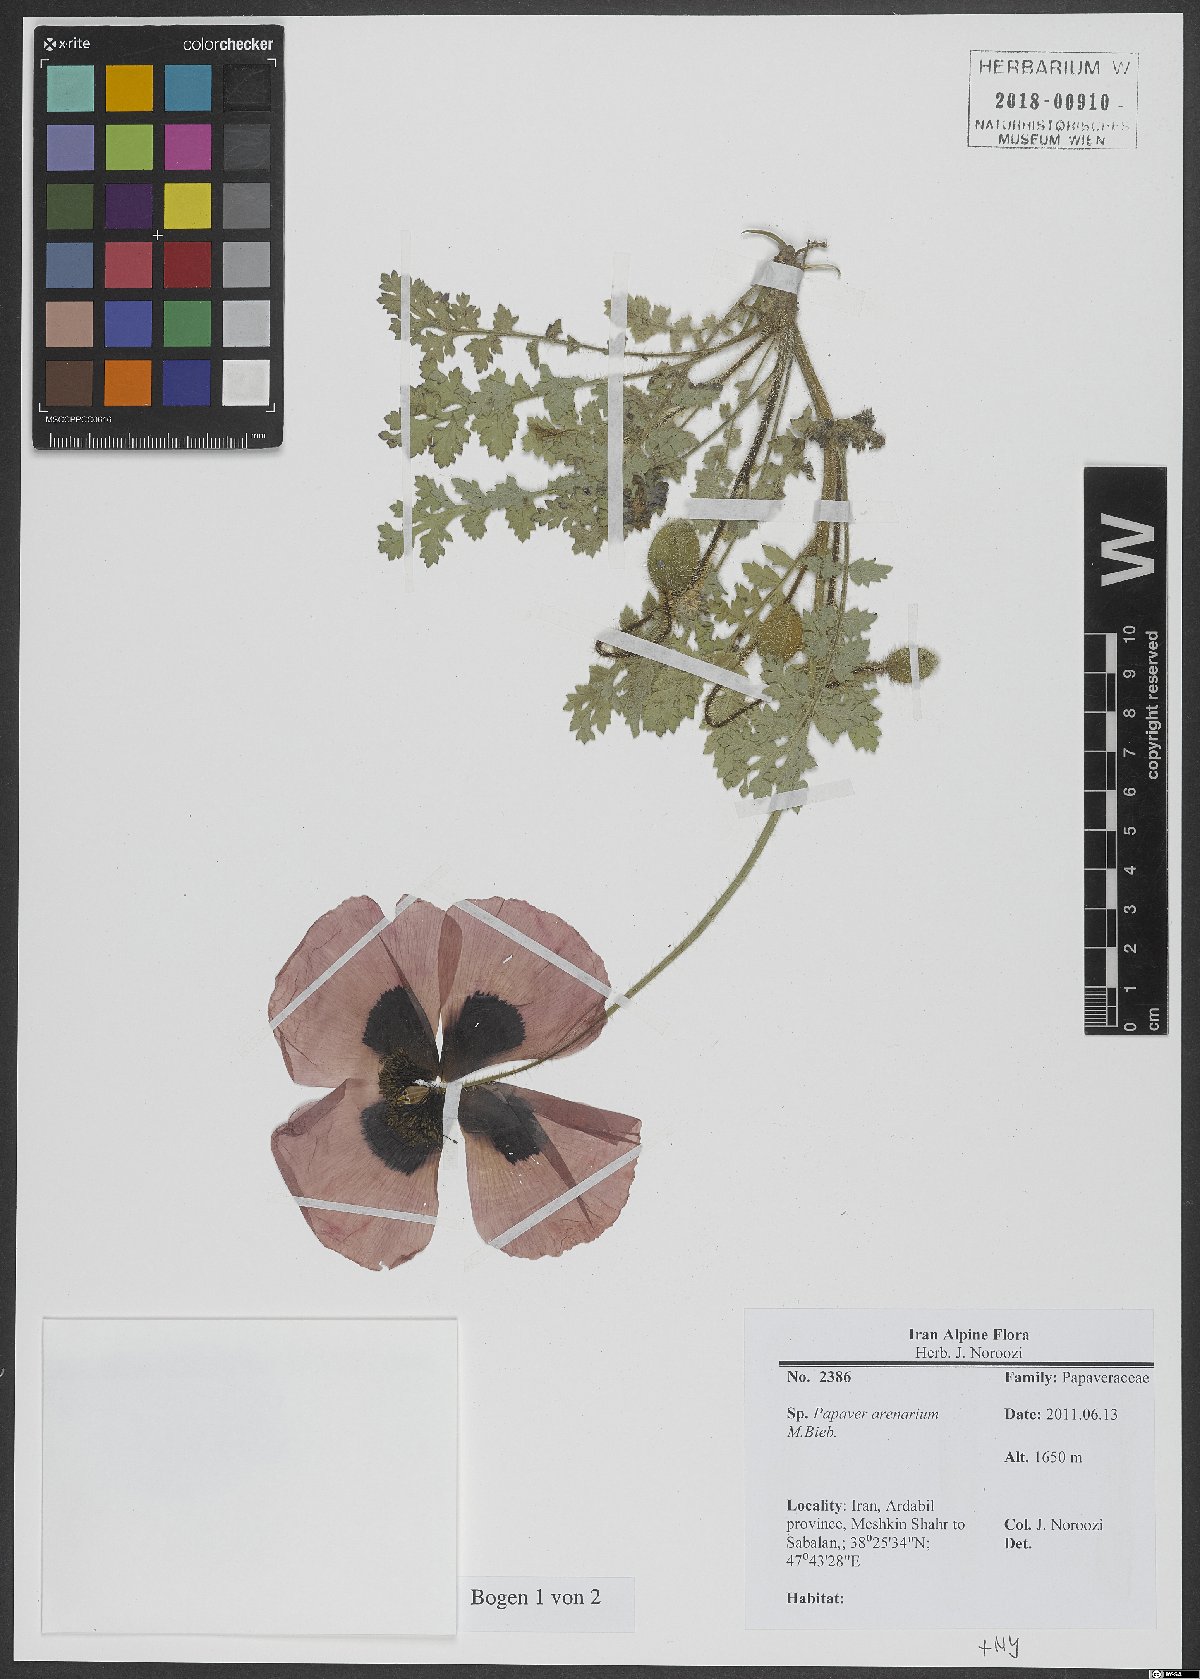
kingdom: Plantae
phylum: Tracheophyta
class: Magnoliopsida
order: Ranunculales
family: Papaveraceae
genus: Papaver
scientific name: Papaver arenarium
